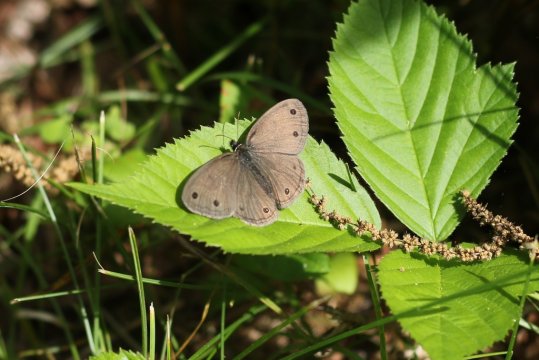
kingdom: Animalia
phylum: Arthropoda
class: Insecta
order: Lepidoptera
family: Nymphalidae
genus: Euptychia
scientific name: Euptychia cymela
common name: Little Wood Satyr
